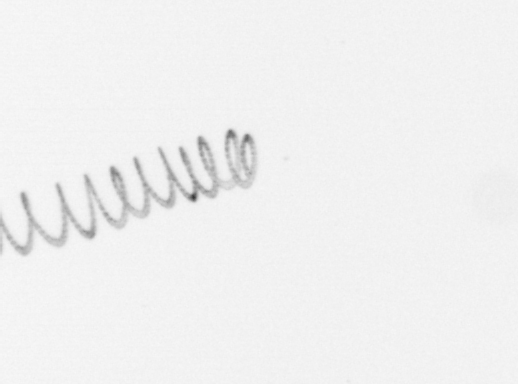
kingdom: Chromista
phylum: Ochrophyta
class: Bacillariophyceae
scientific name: Bacillariophyceae
